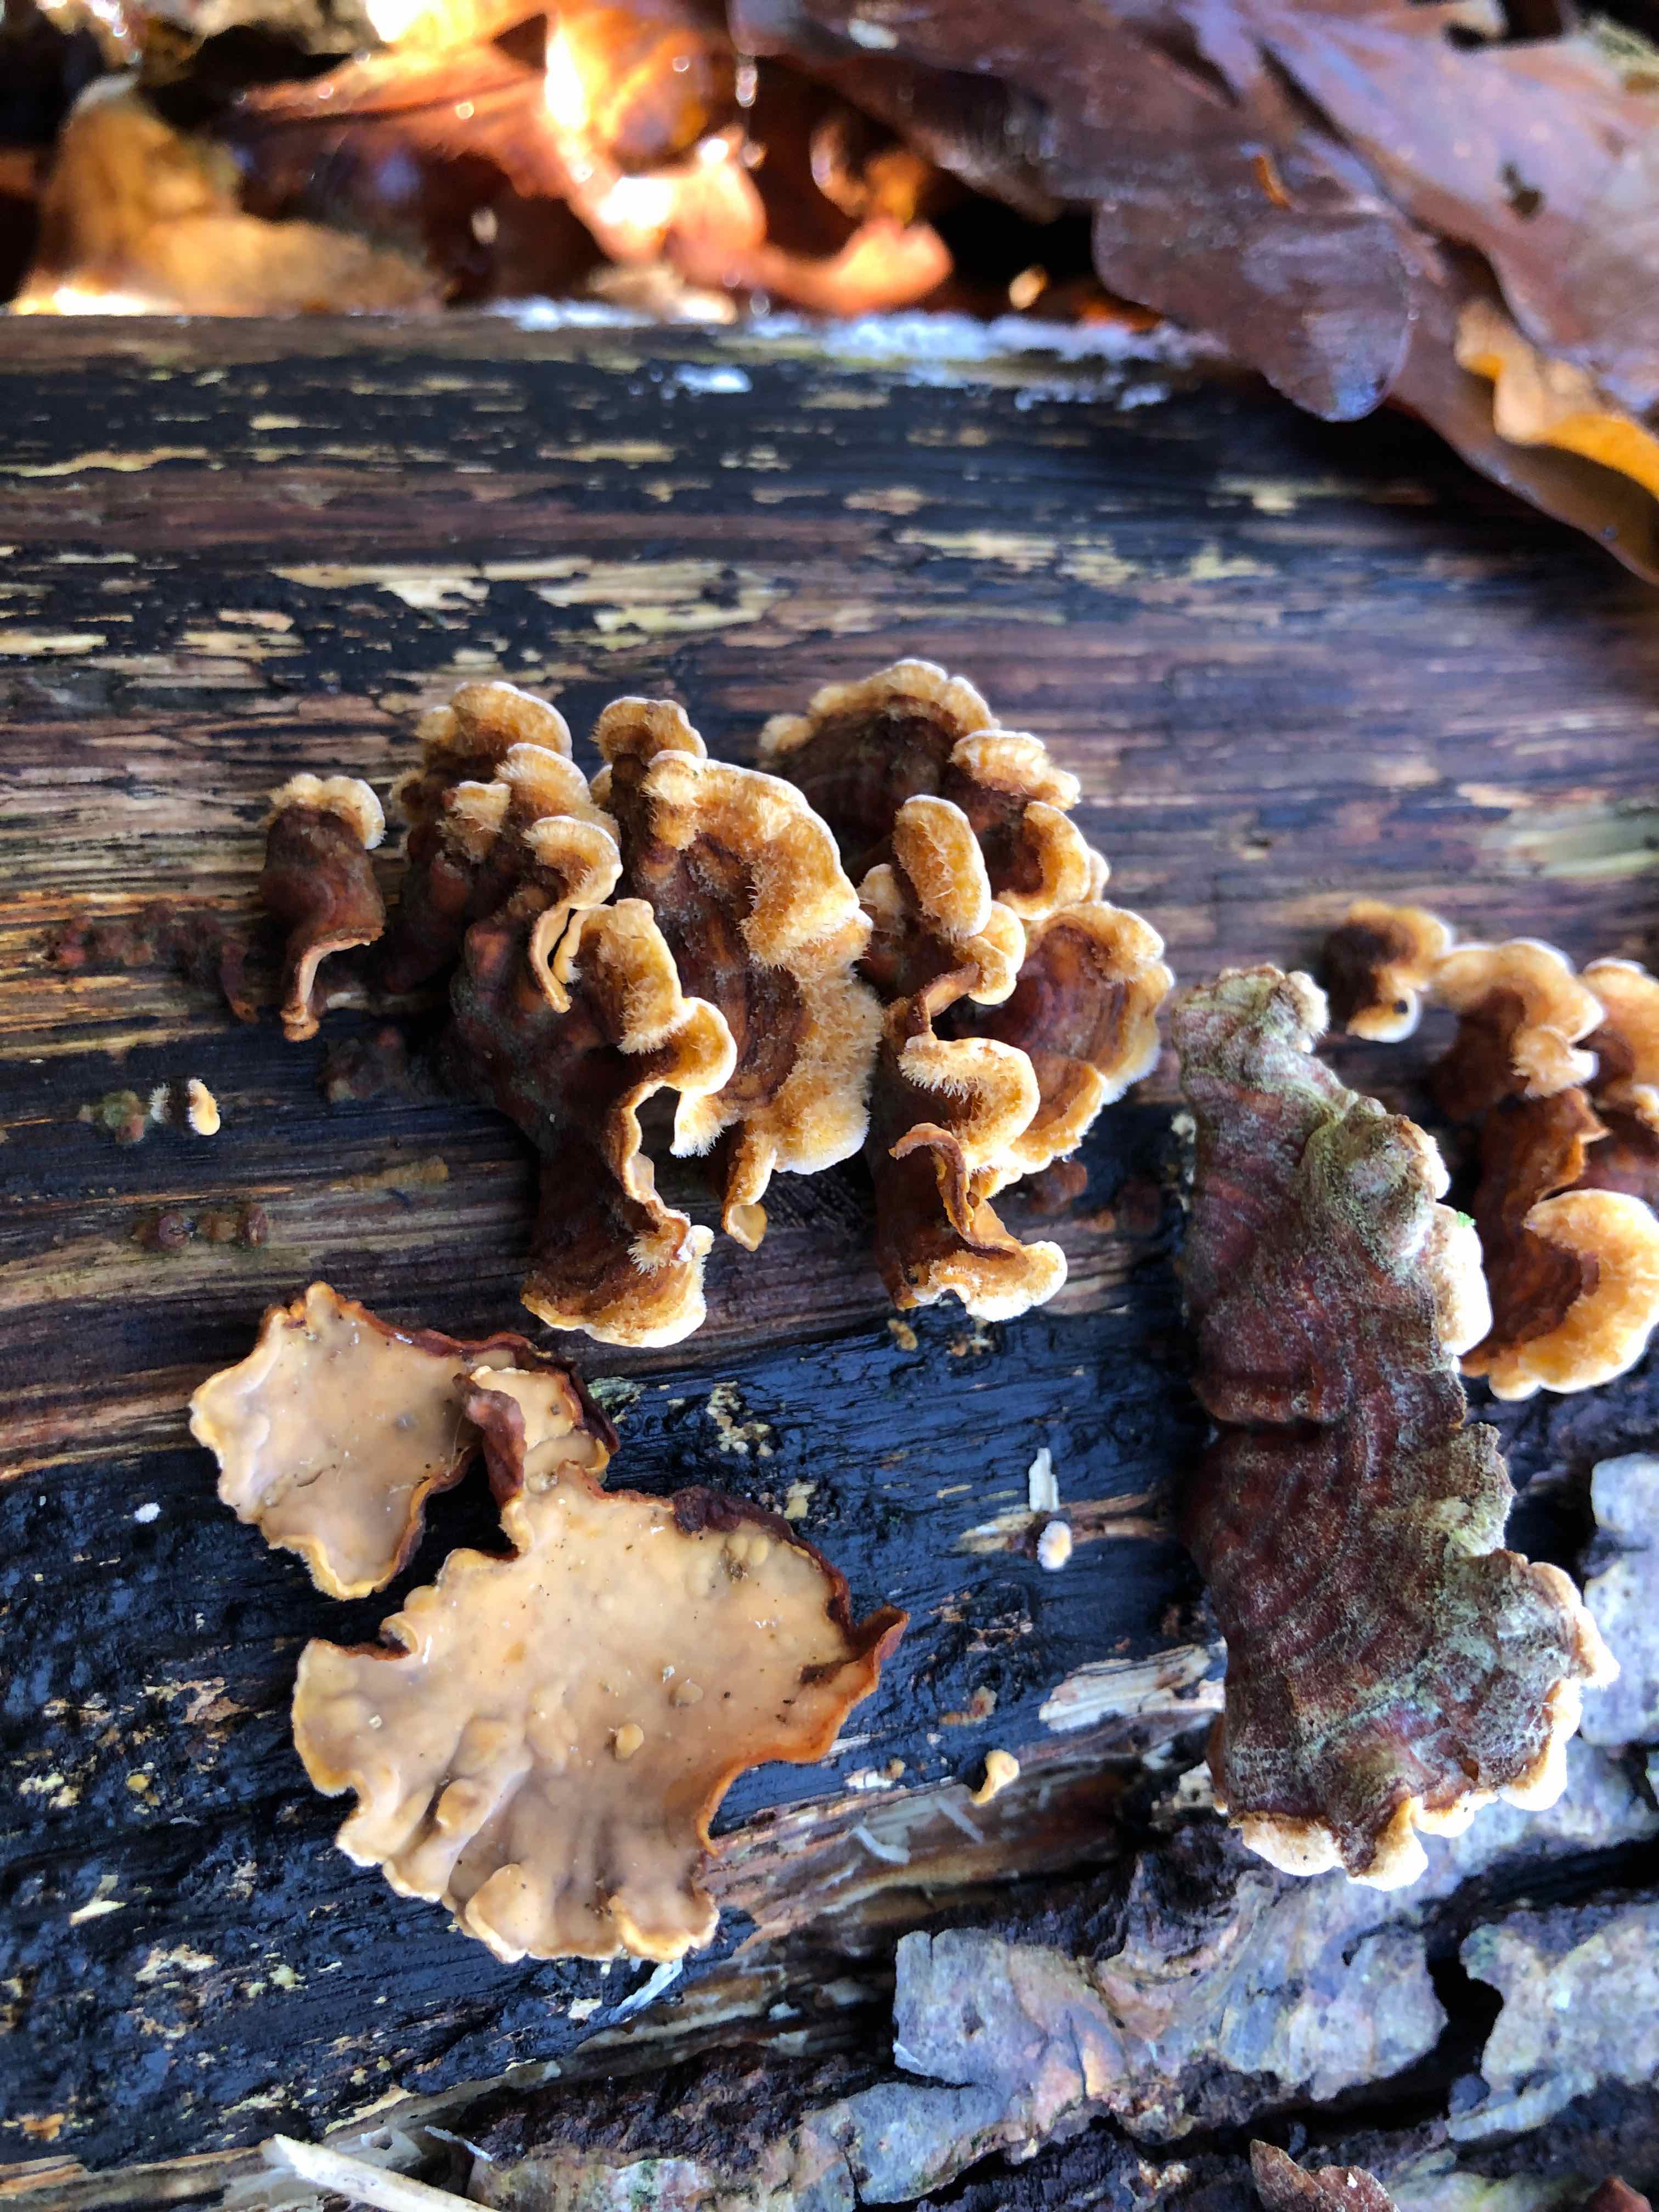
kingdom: Fungi
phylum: Basidiomycota
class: Agaricomycetes
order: Russulales
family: Stereaceae
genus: Stereum
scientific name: Stereum hirsutum
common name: håret lædersvamp
